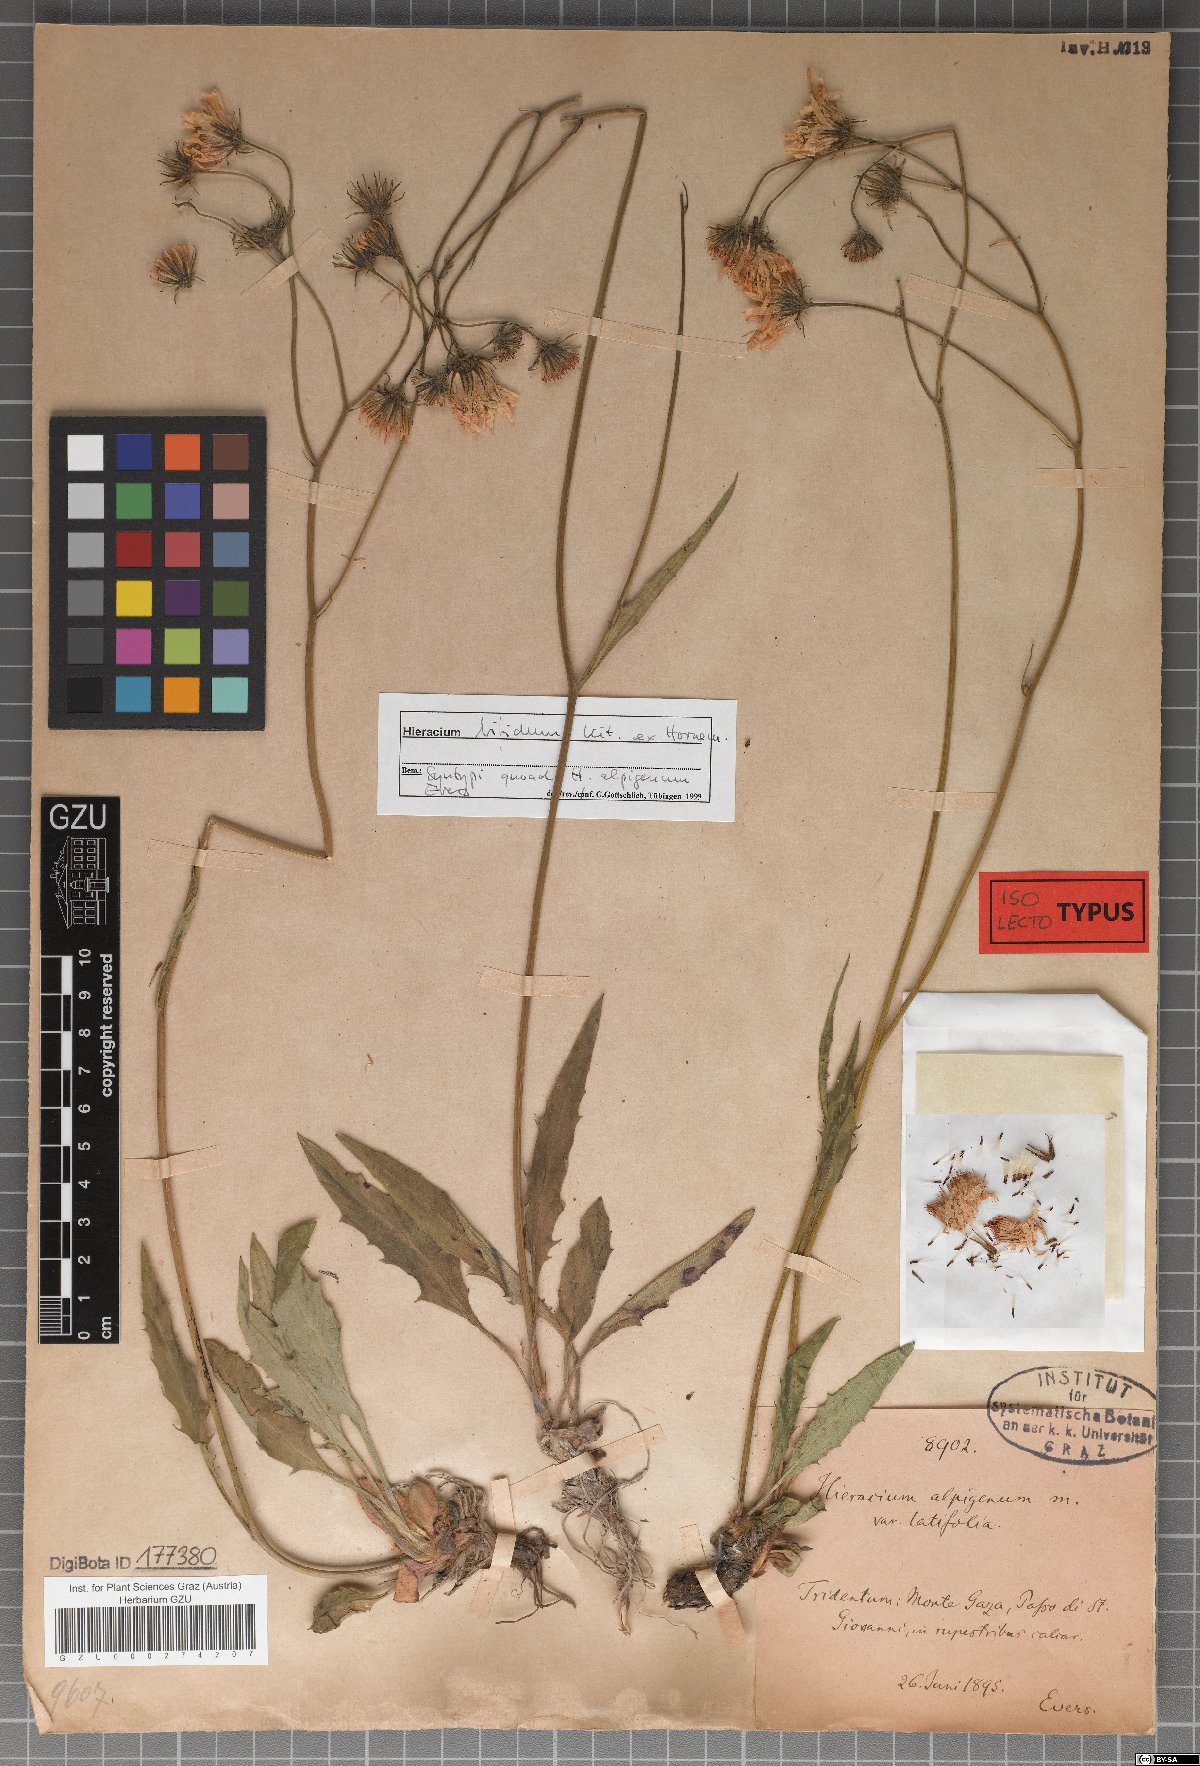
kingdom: Plantae
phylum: Tracheophyta
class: Magnoliopsida
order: Asterales
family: Asteraceae
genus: Hieracium
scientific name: Hieracium alpigena
